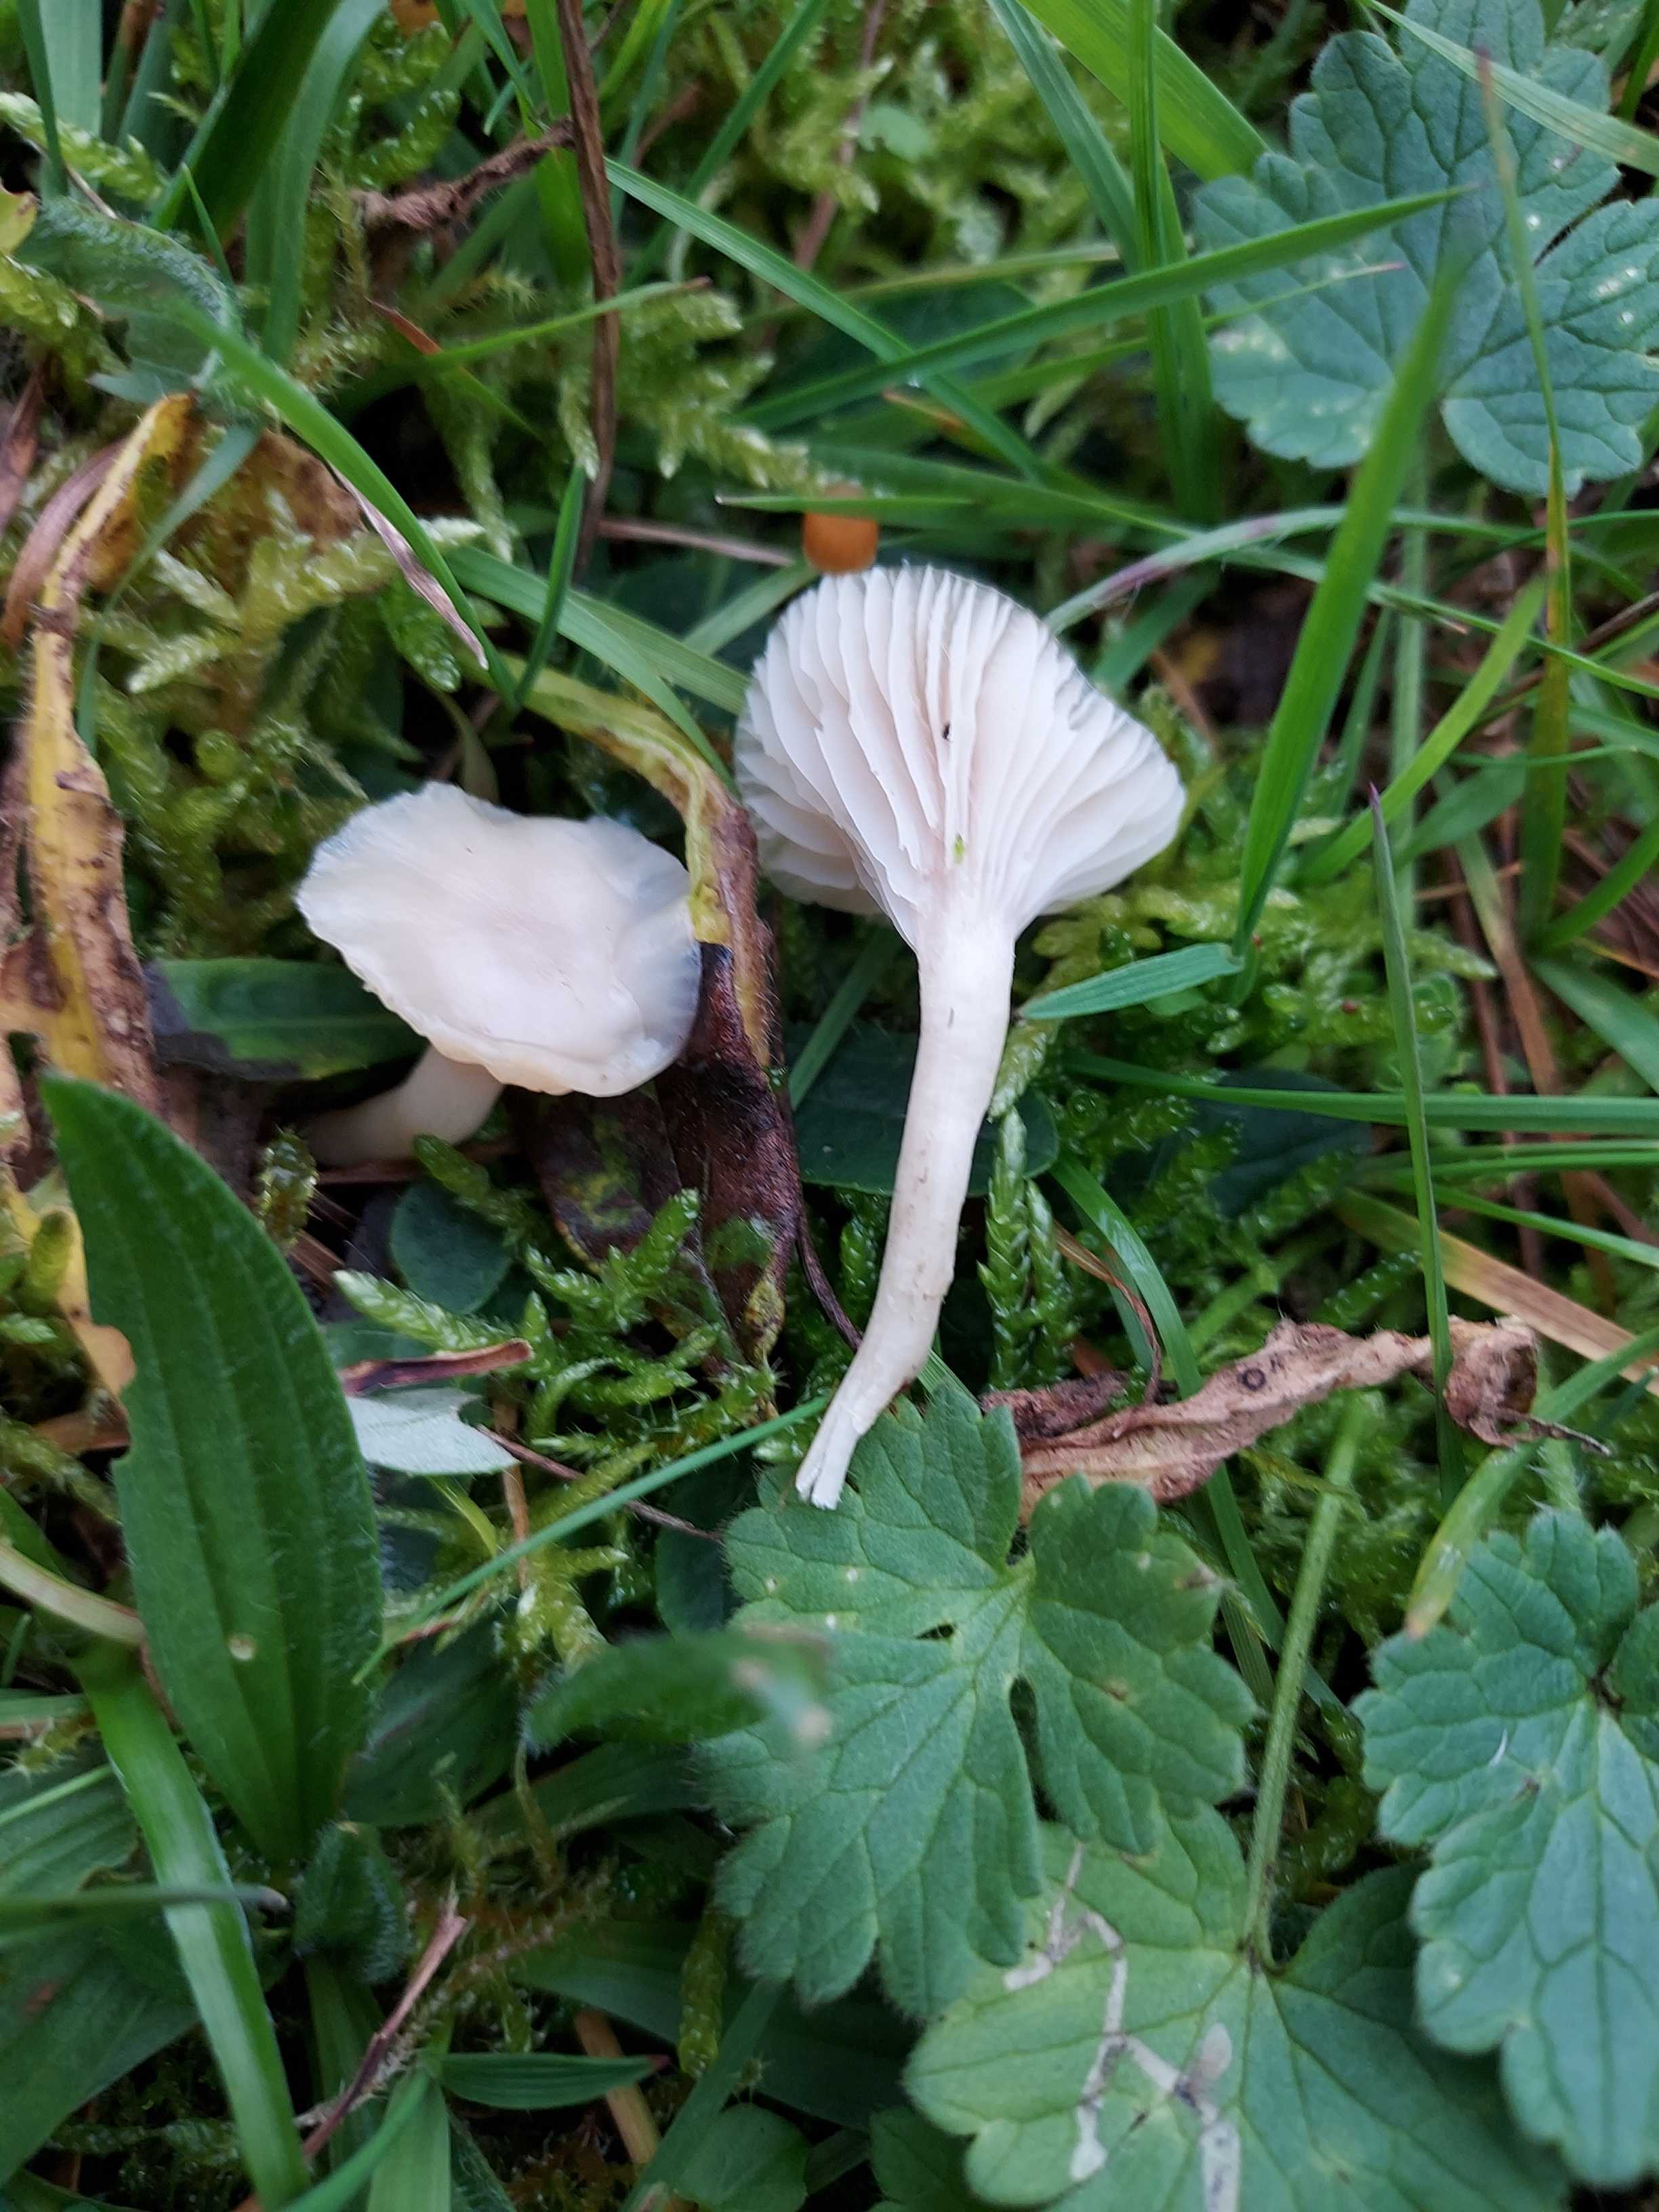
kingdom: Fungi
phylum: Basidiomycota
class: Agaricomycetes
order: Agaricales
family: Hygrophoraceae
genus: Cuphophyllus
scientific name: Cuphophyllus virgineus
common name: snehvid vokshat
